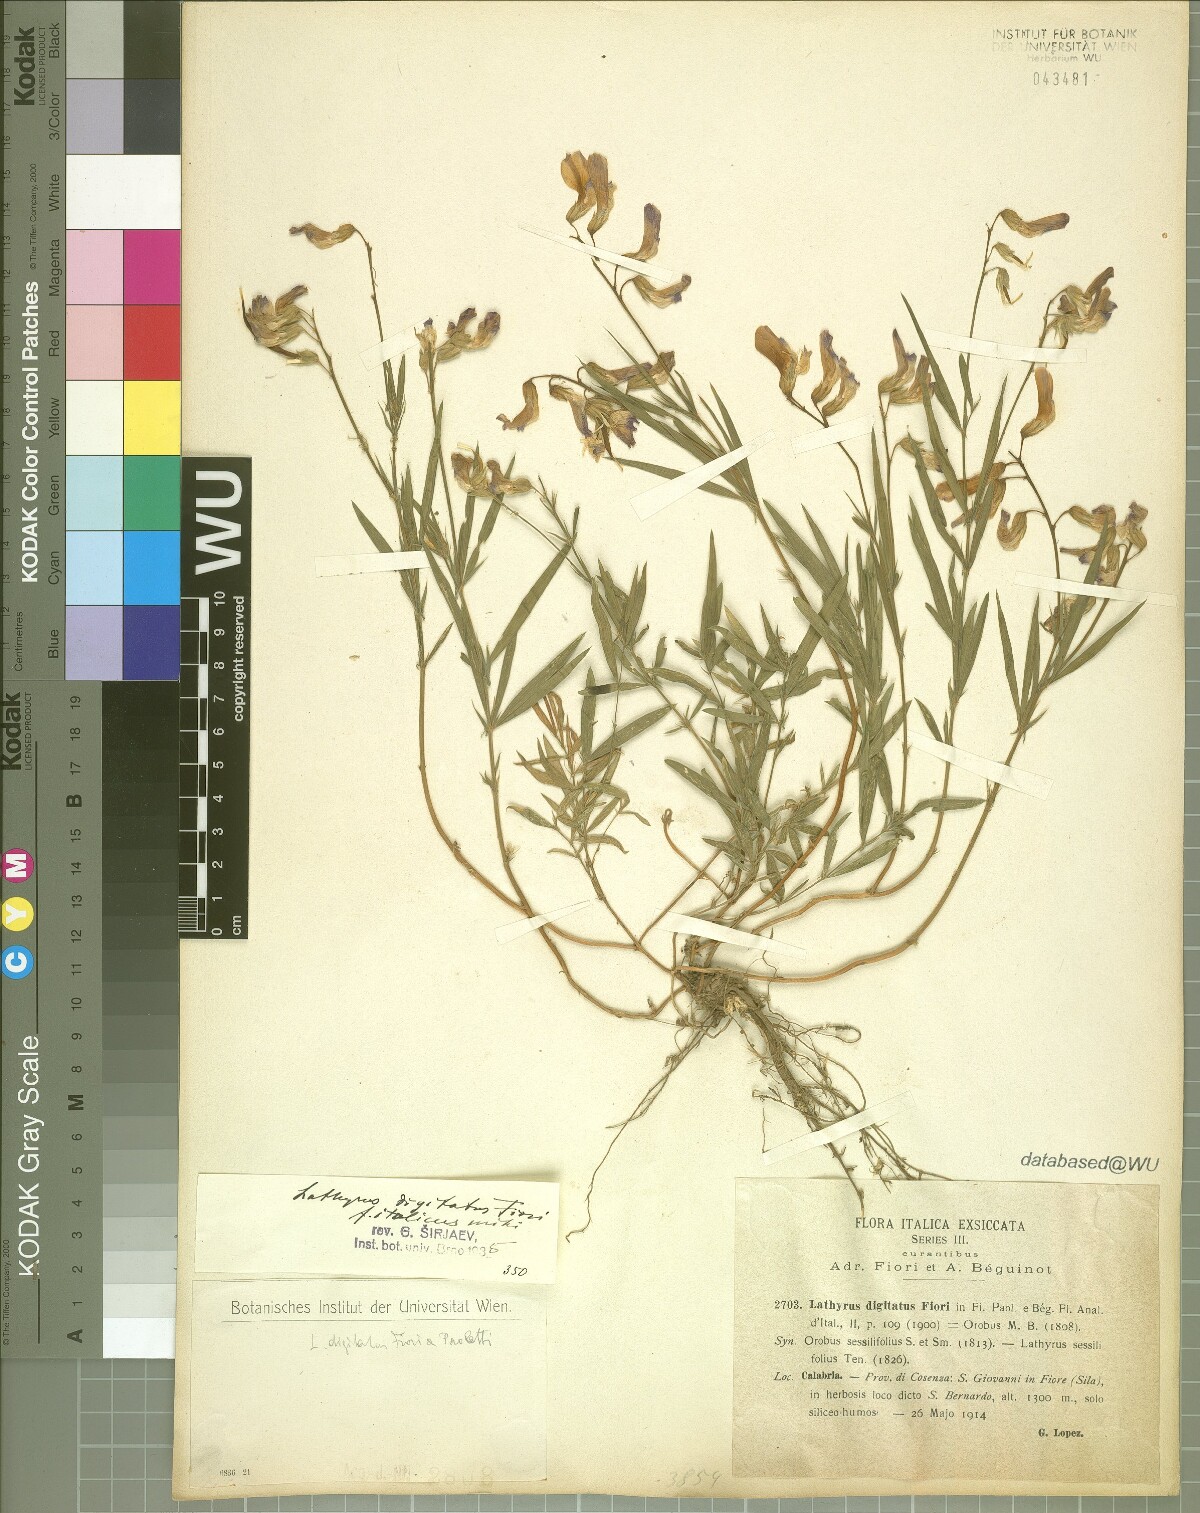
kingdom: Plantae
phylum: Tracheophyta
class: Magnoliopsida
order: Fabales
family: Fabaceae
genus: Lathyrus
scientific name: Lathyrus digitatus
